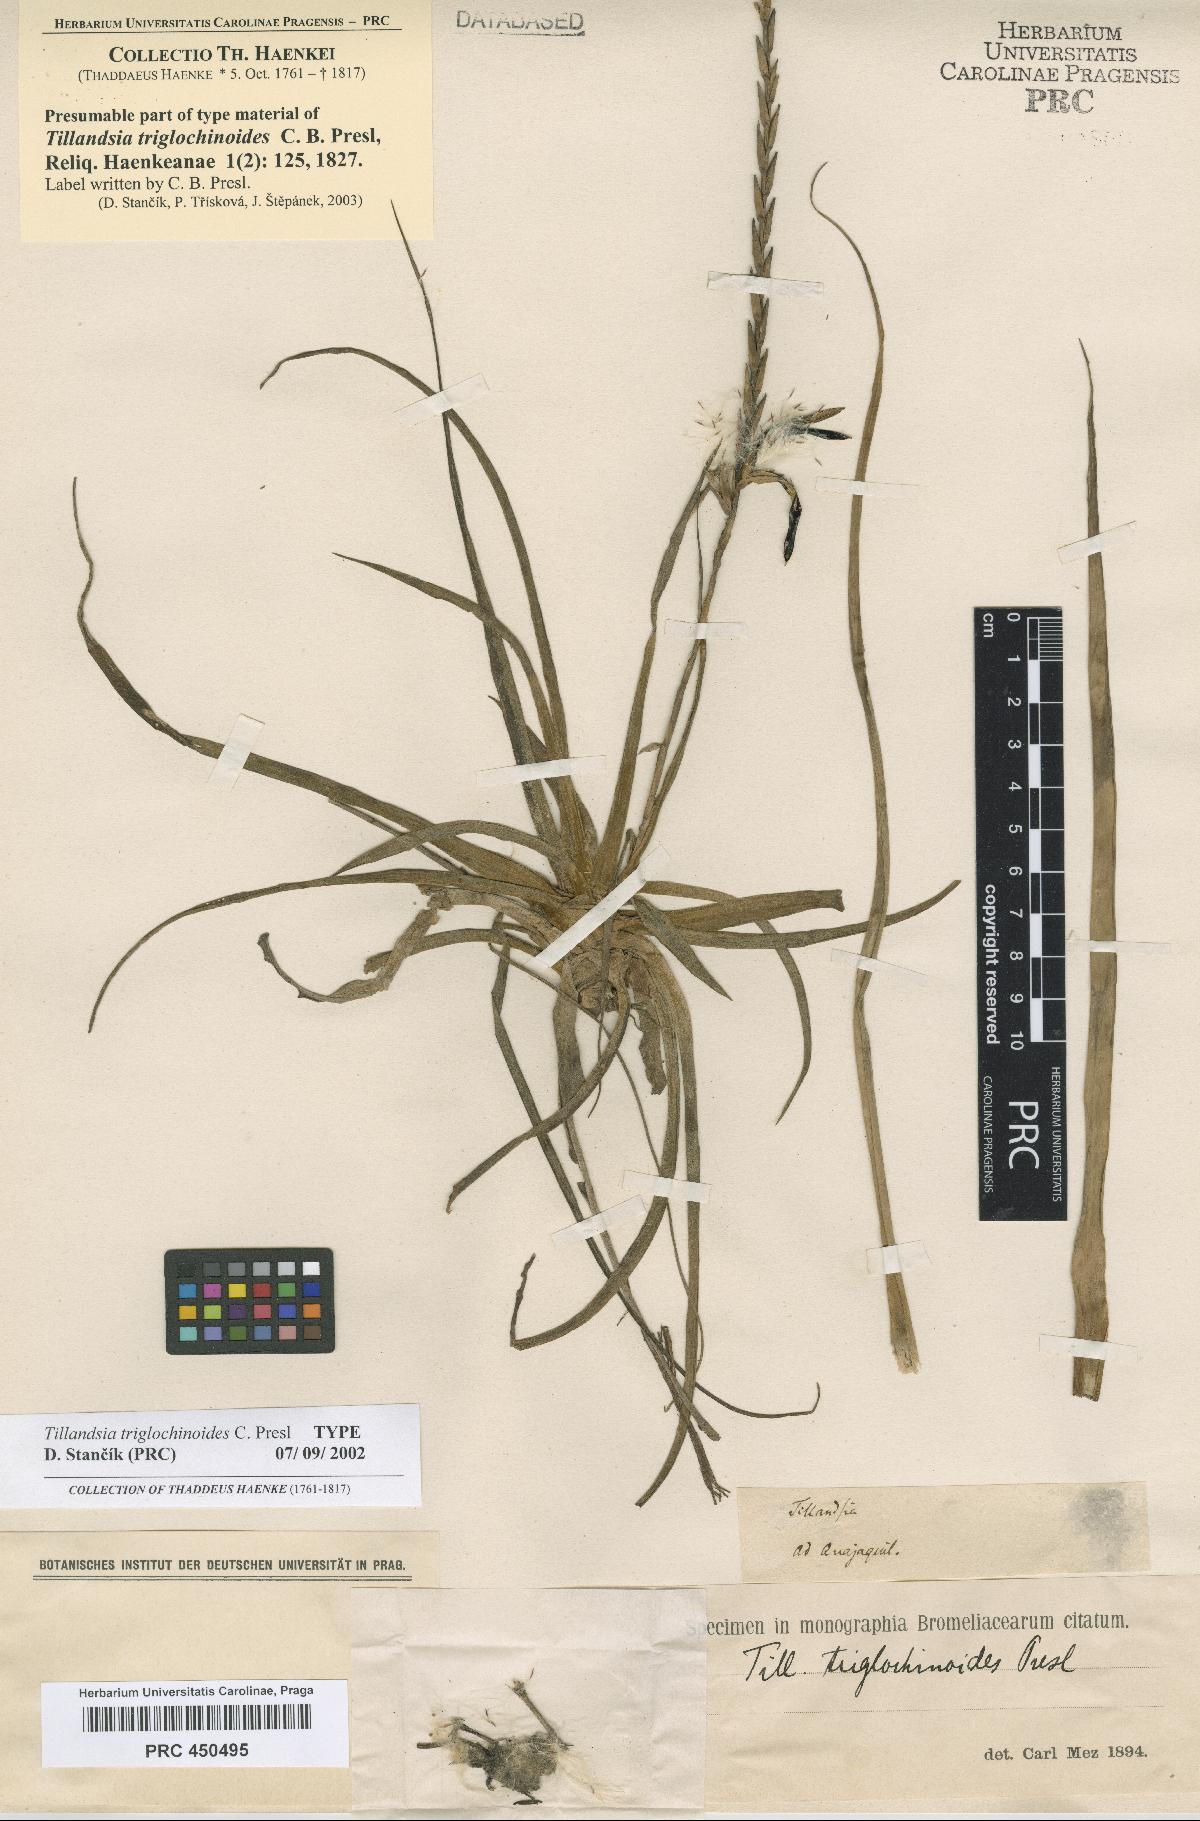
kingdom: Plantae
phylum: Tracheophyta
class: Liliopsida
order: Poales
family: Bromeliaceae
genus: Lemeltonia
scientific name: Lemeltonia triglochinoides
